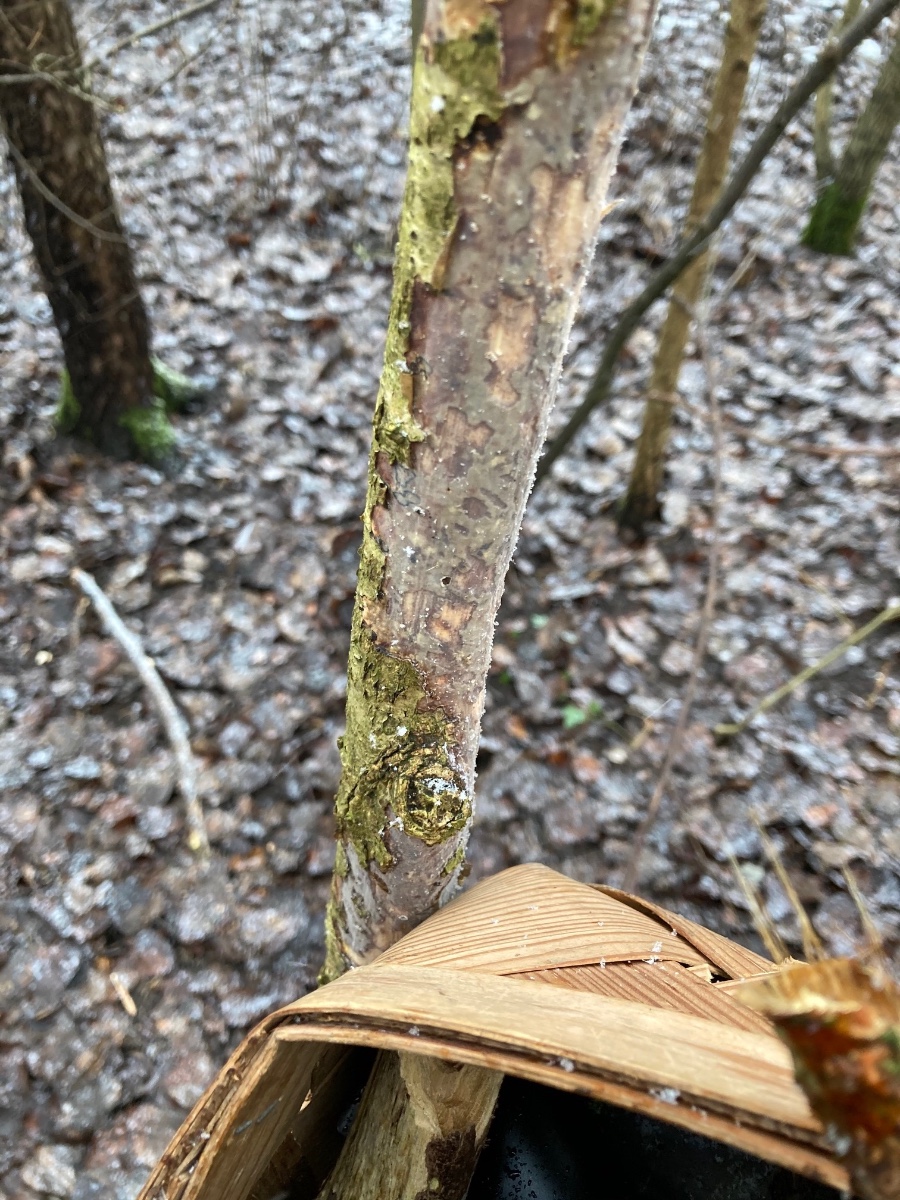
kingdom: Fungi
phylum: Basidiomycota
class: Agaricomycetes
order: Corticiales
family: Vuilleminiaceae
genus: Vuilleminia
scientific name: Vuilleminia comedens
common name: almindelig barksprænger
